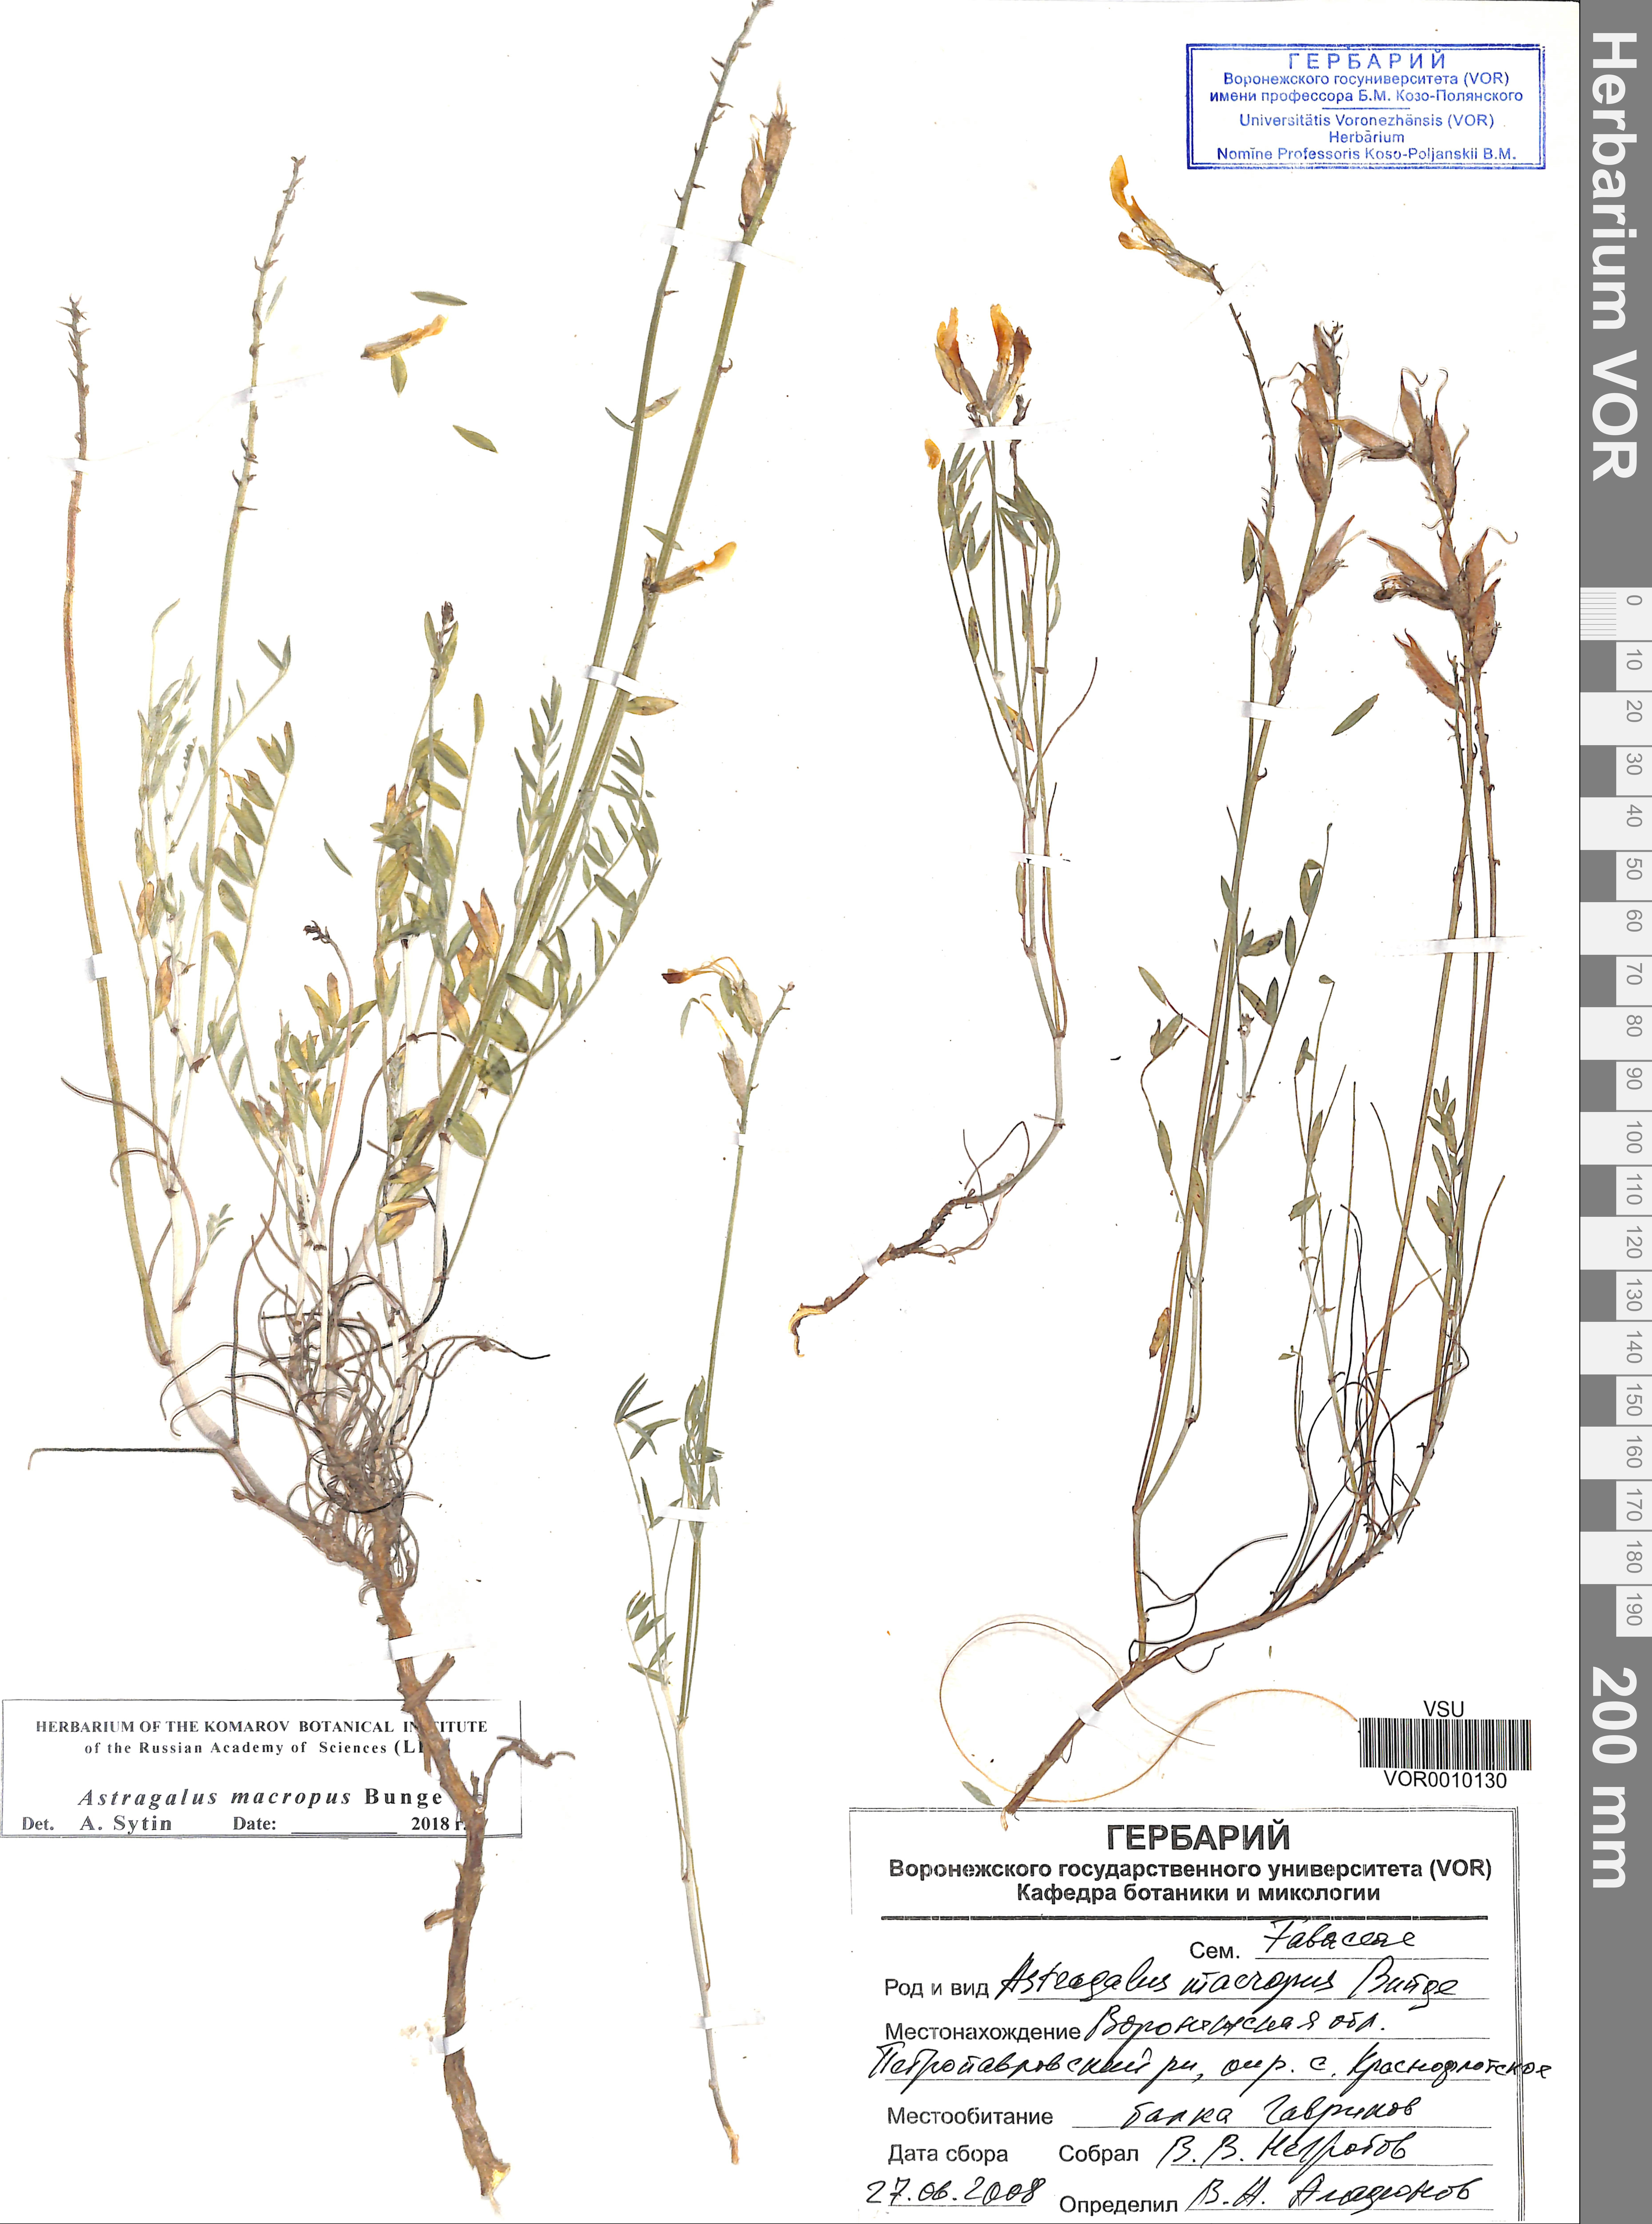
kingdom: Plantae
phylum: Tracheophyta
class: Magnoliopsida
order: Fabales
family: Fabaceae
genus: Astragalus
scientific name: Astragalus macropus
